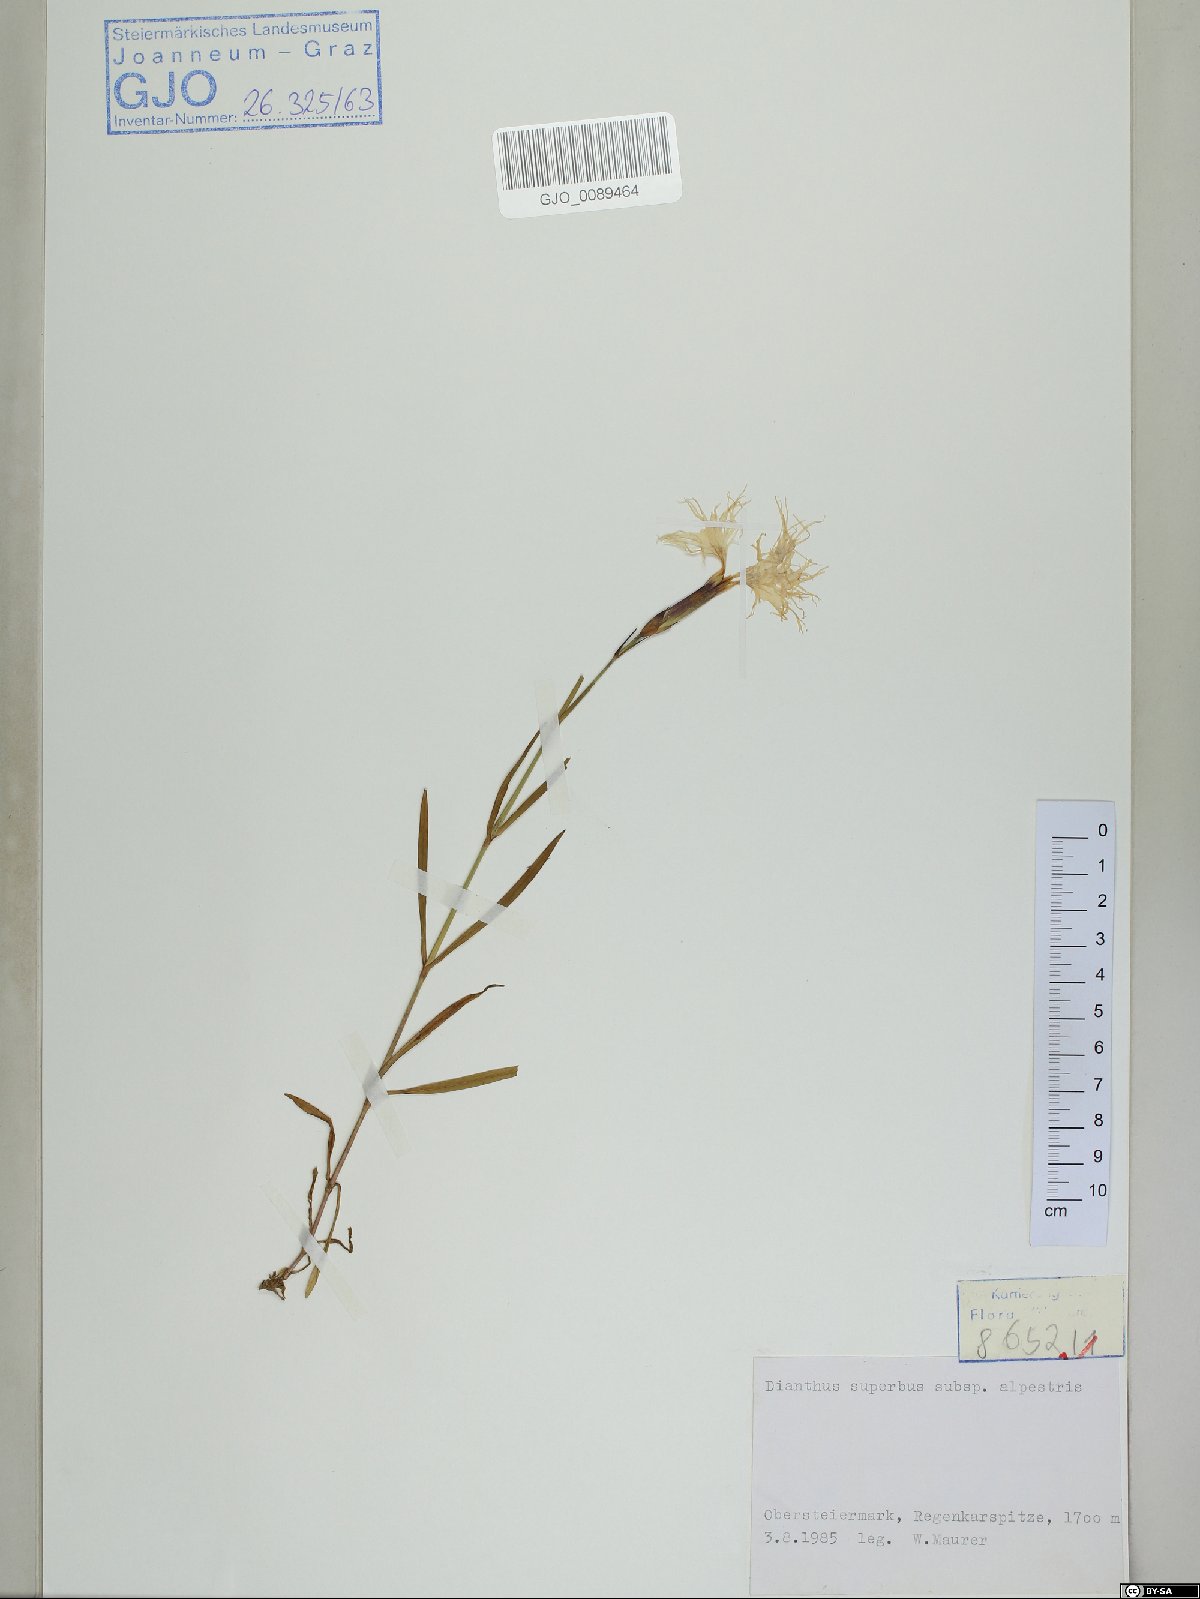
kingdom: Plantae
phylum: Tracheophyta
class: Magnoliopsida
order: Caryophyllales
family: Caryophyllaceae
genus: Dianthus
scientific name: Dianthus superbus
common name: Fringed pink
